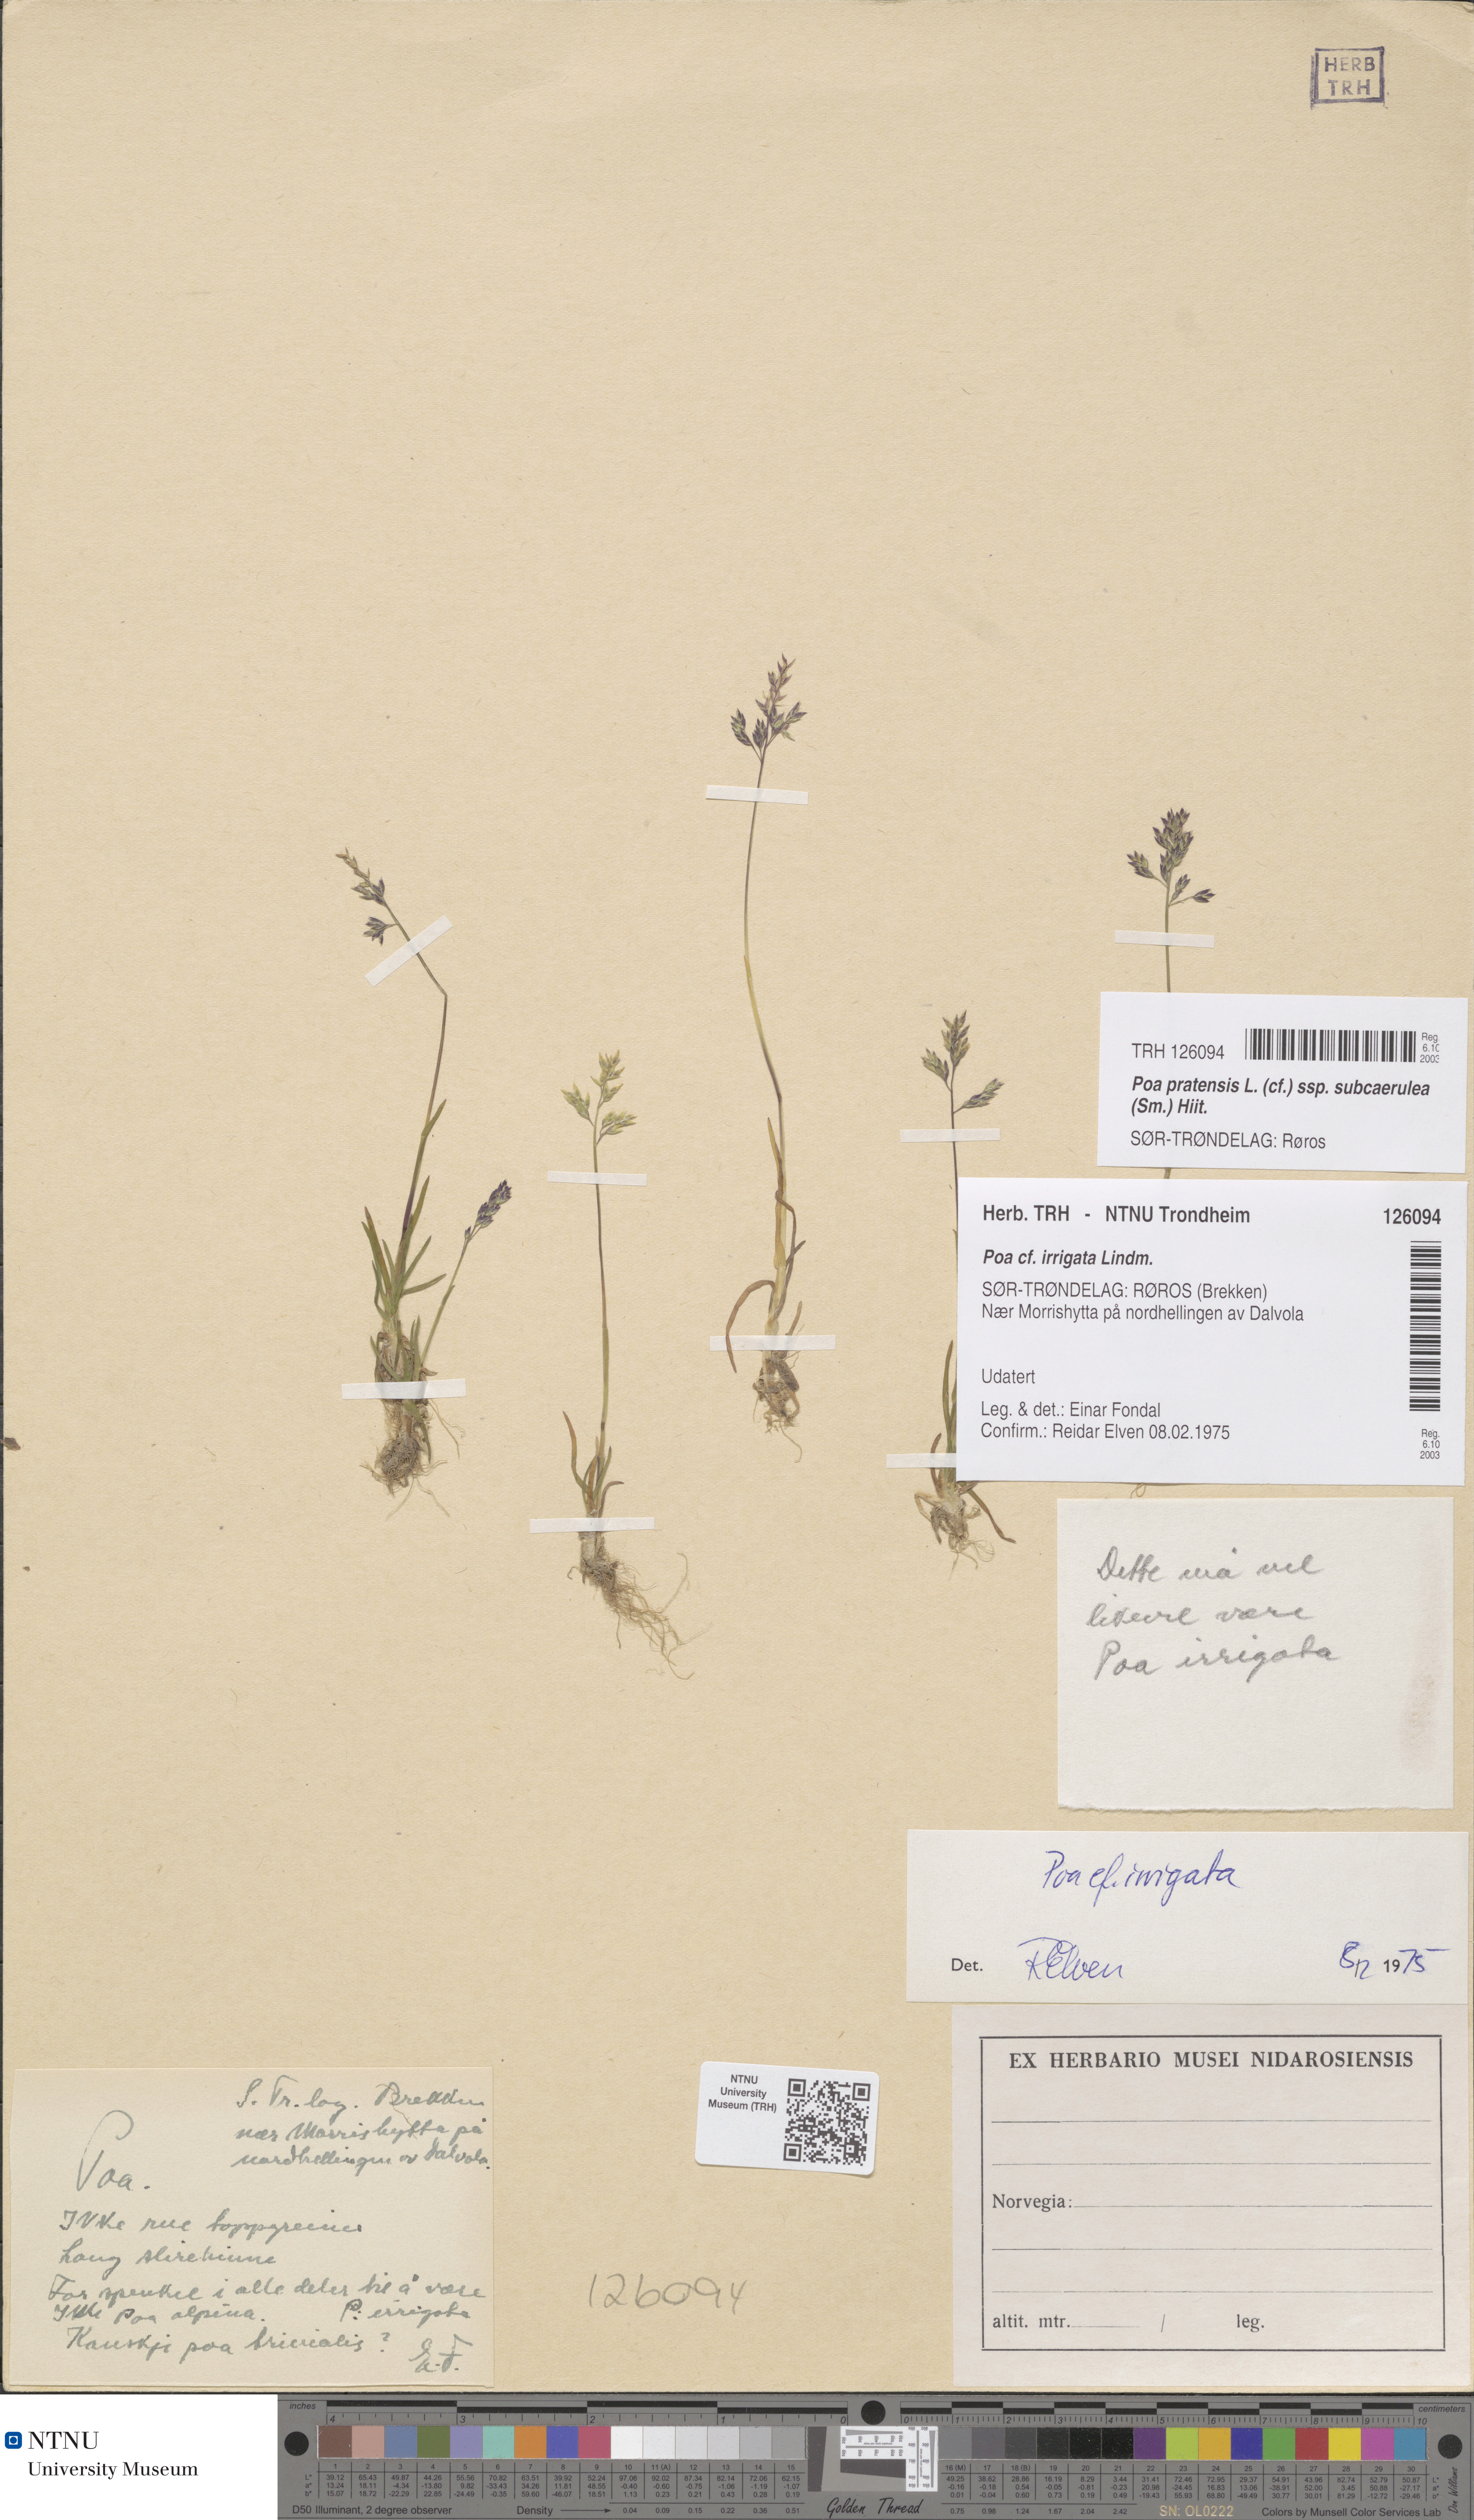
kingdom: Plantae
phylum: Tracheophyta
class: Liliopsida
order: Poales
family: Poaceae
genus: Poa
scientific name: Poa humilis
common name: Spreading meadow-grass
